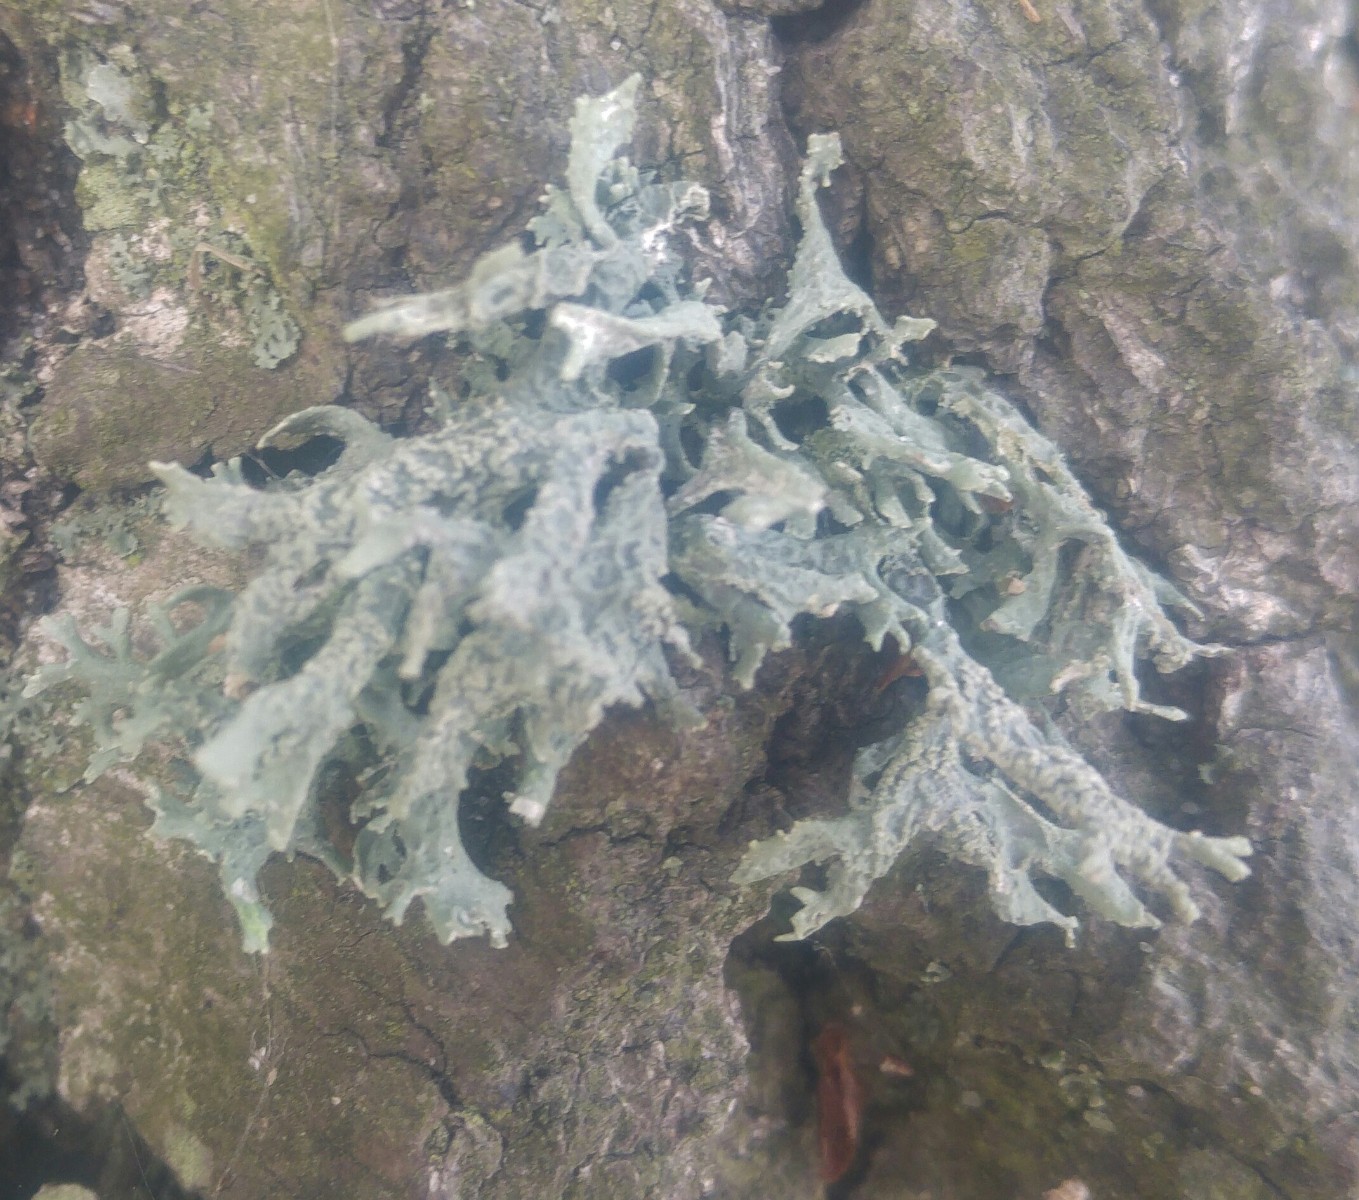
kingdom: Fungi
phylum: Ascomycota
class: Lecanoromycetes
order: Lecanorales
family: Parmeliaceae
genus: Evernia
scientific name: Evernia prunastri
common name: almindelig slåenlav
